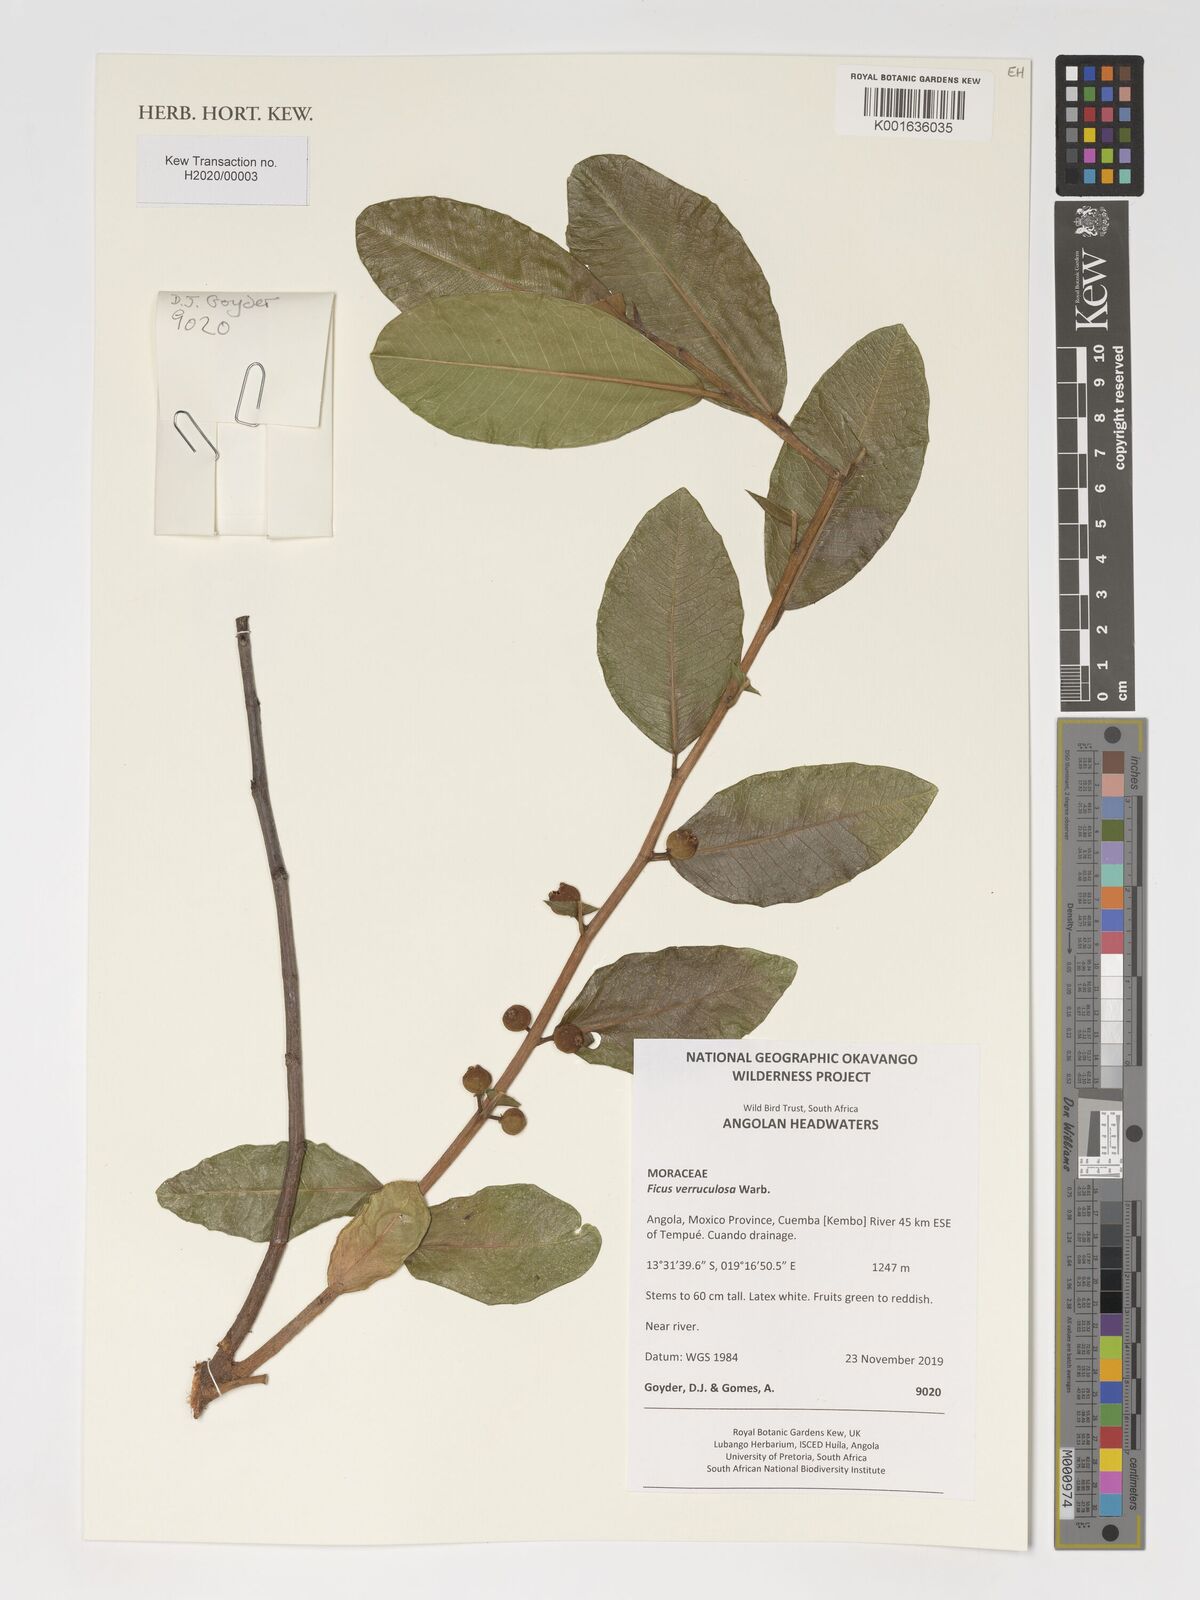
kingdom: Plantae
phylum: Tracheophyta
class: Magnoliopsida
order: Rosales
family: Moraceae
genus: Ficus
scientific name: Ficus verruculosa
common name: Water fig
